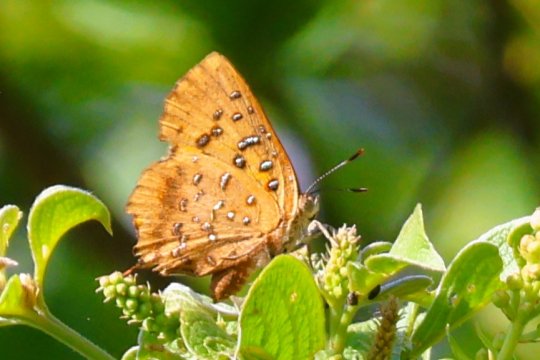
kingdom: Animalia
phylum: Arthropoda
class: Insecta
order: Lepidoptera
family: Lycaenidae
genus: Axiocerses
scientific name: Axiocerses perion
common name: Eastern Scarlet
